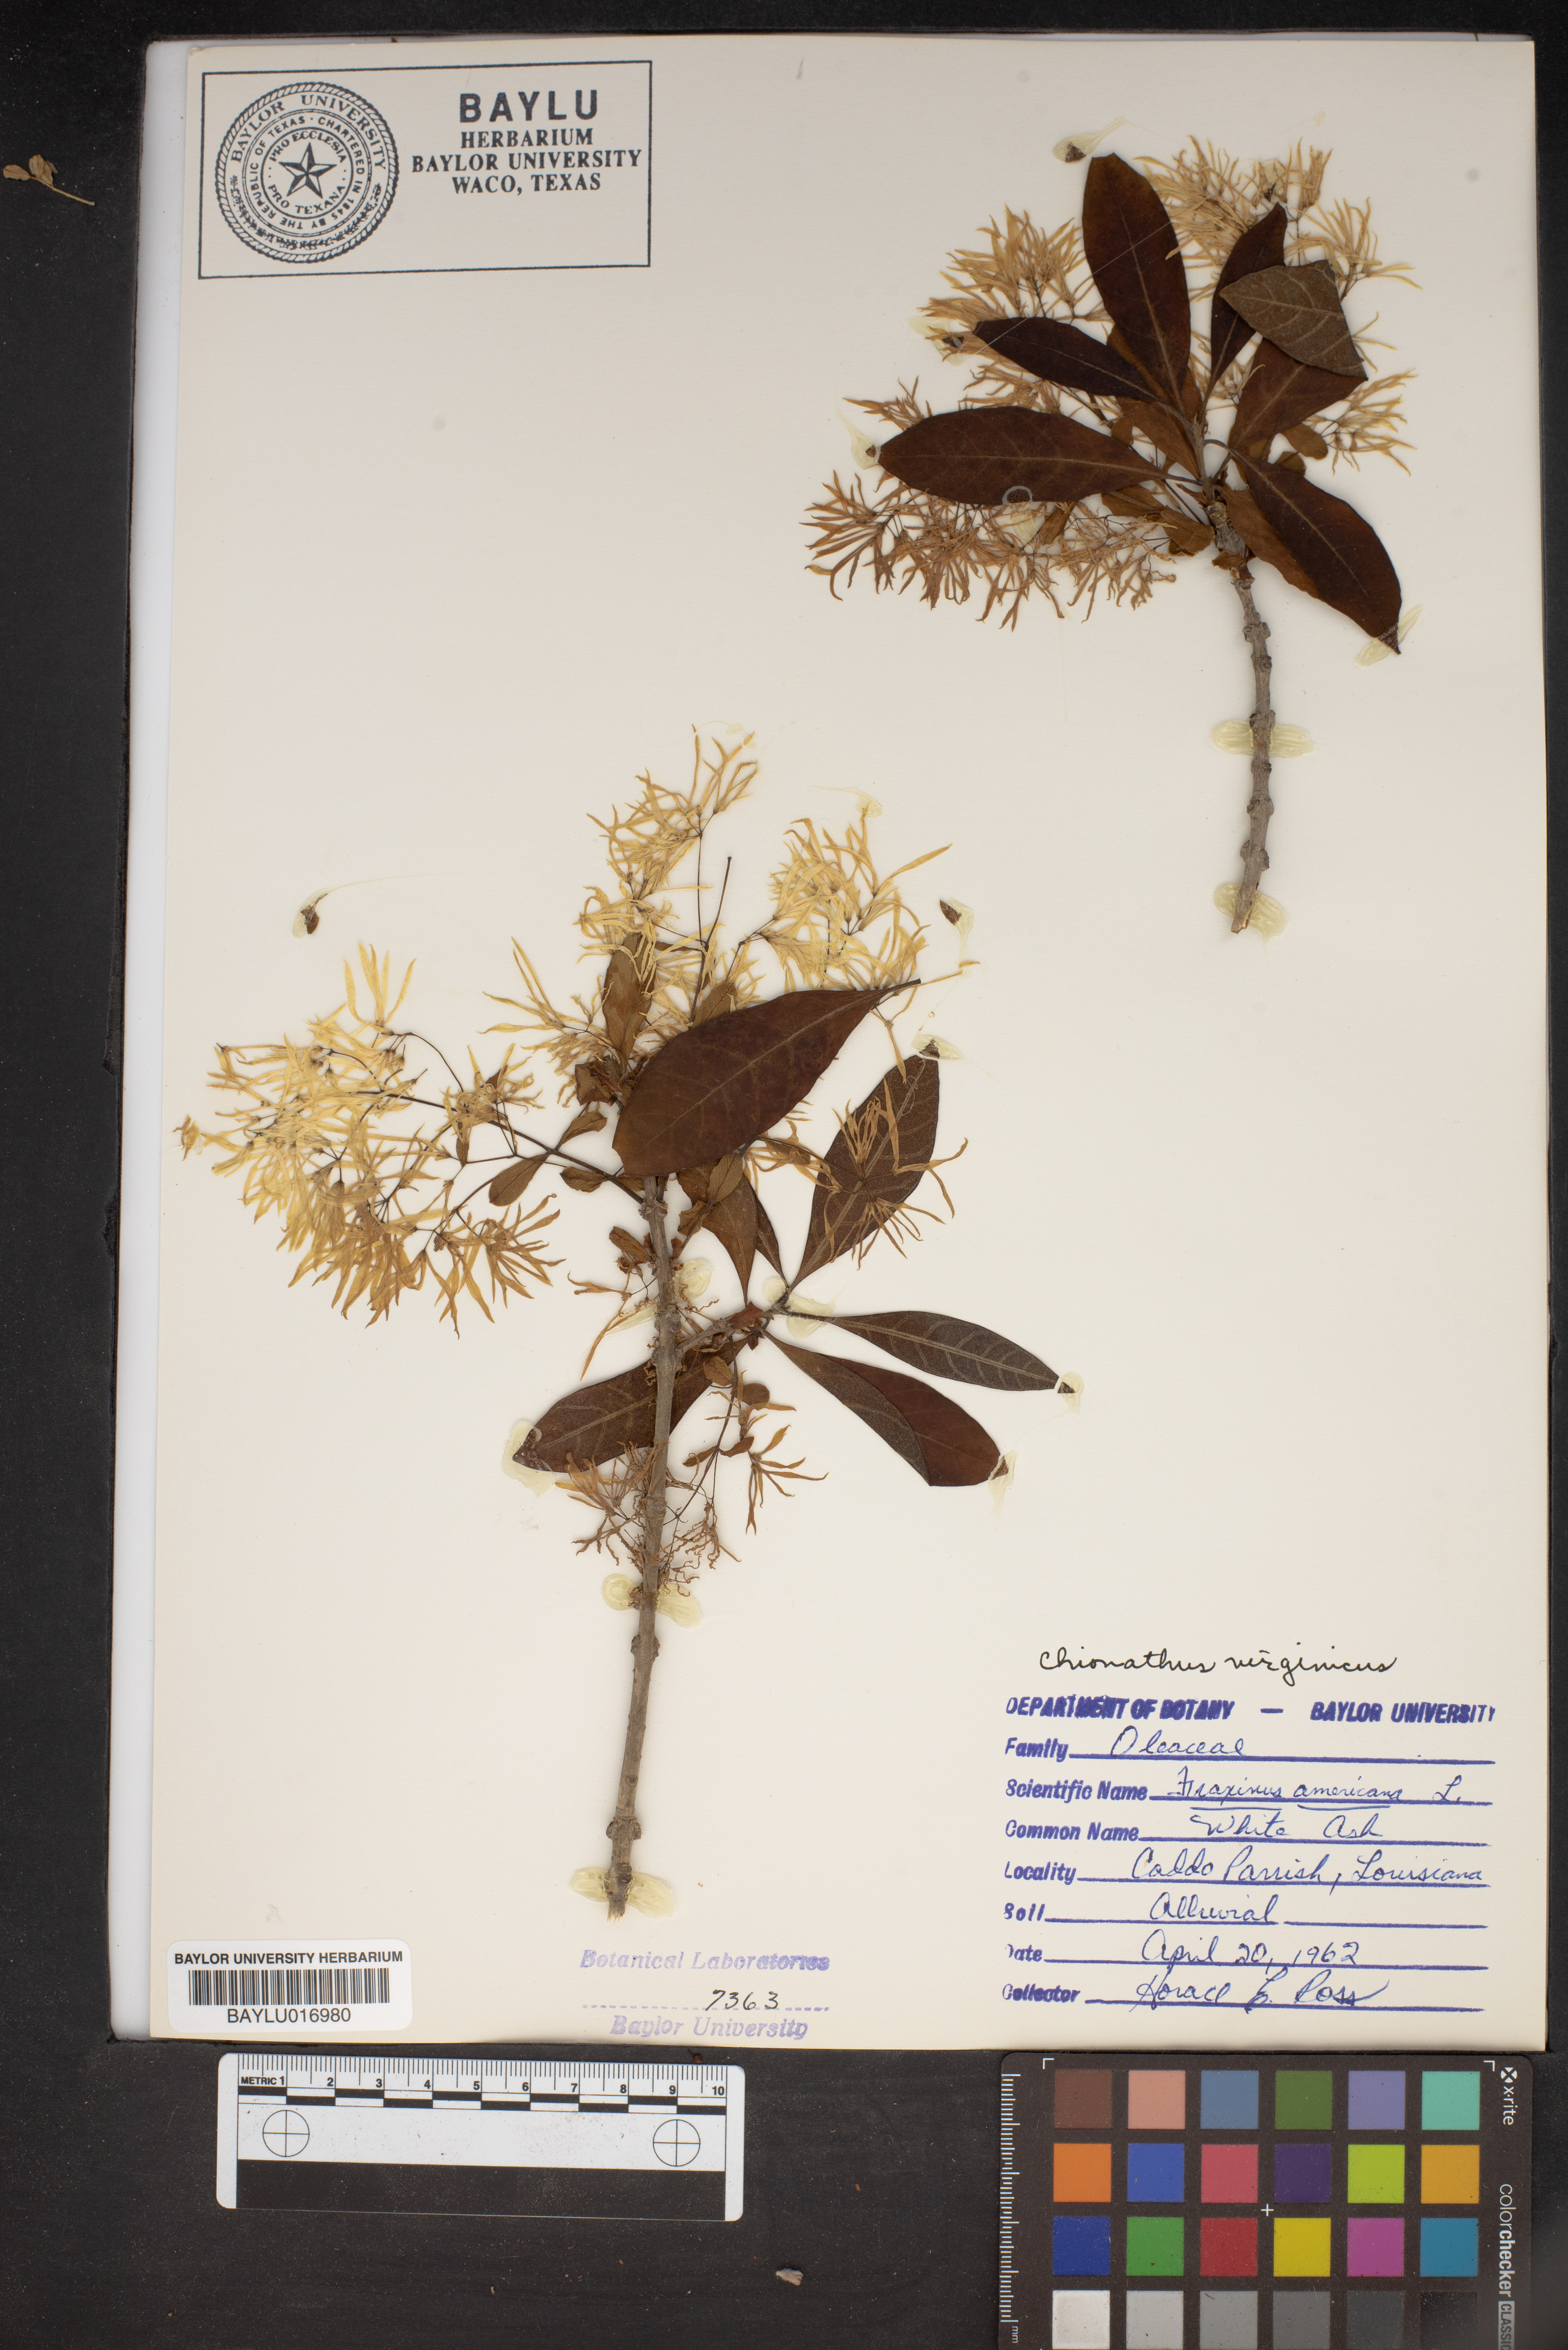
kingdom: Plantae
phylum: Tracheophyta
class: Magnoliopsida
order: Lamiales
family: Oleaceae
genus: Fraxinus
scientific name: Fraxinus americana
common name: White ash
